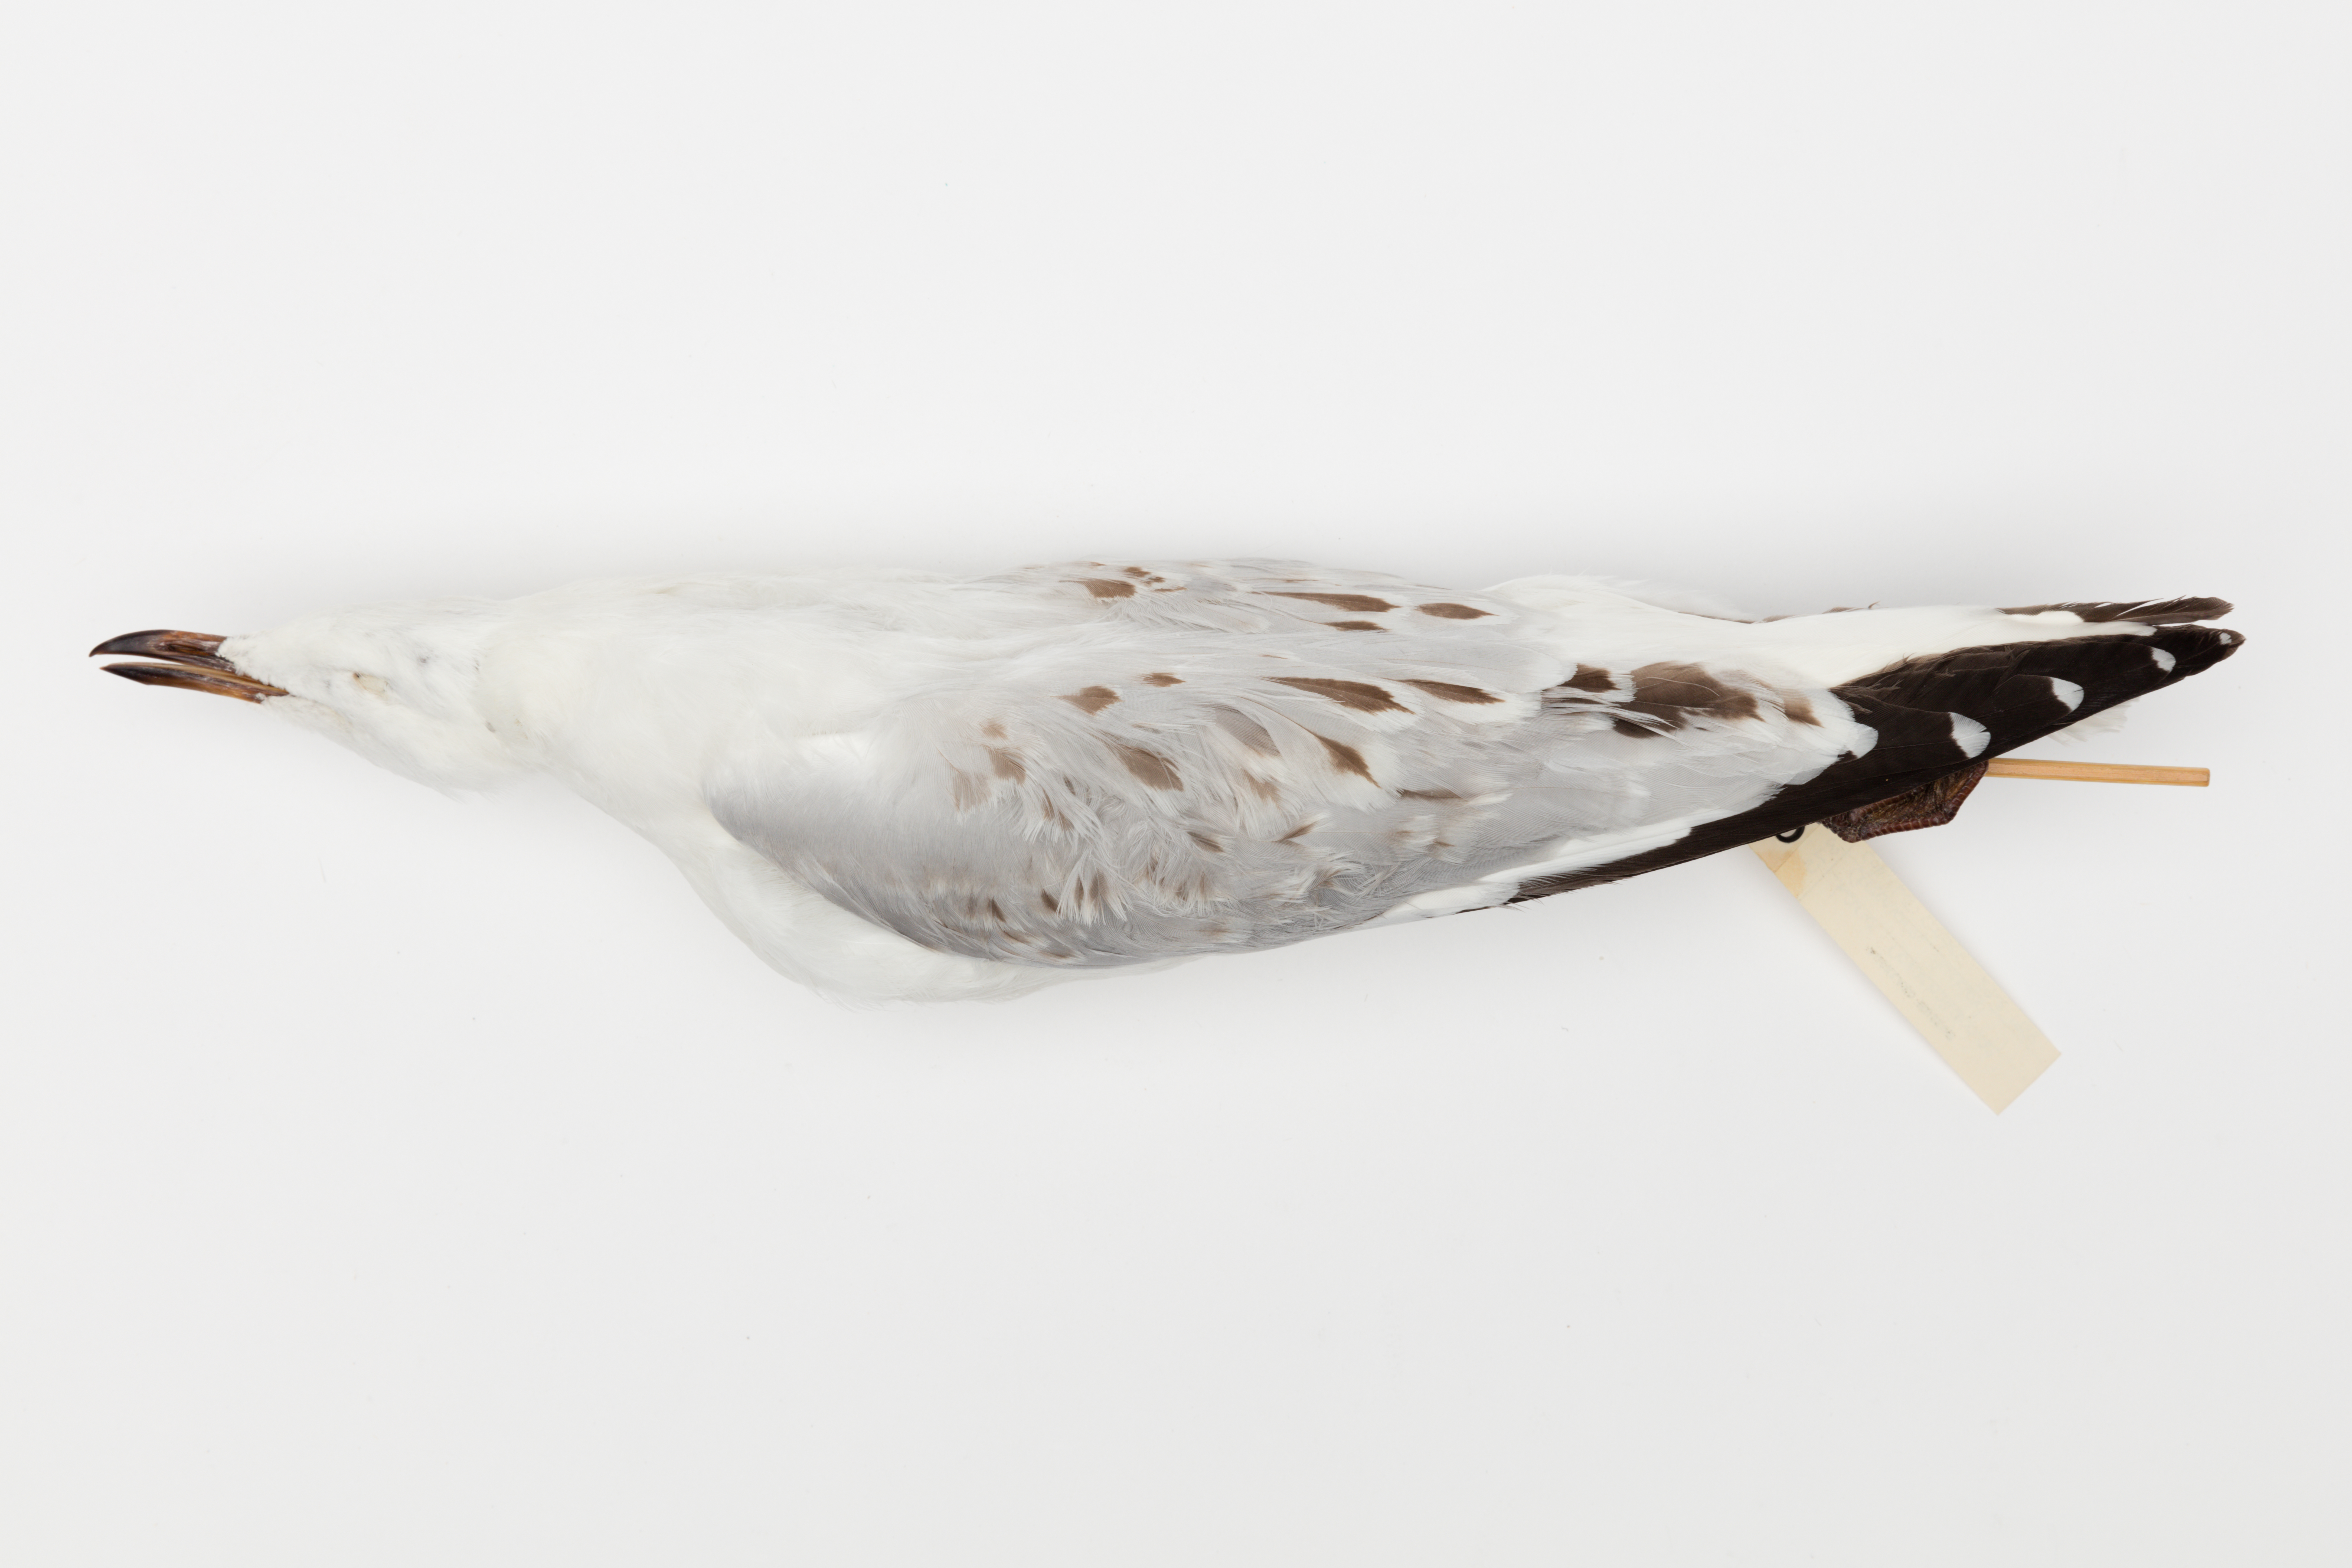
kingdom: Animalia
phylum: Chordata
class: Aves
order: Charadriiformes
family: Laridae
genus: Chroicocephalus
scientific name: Chroicocephalus novaehollandiae
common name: Silver gull
